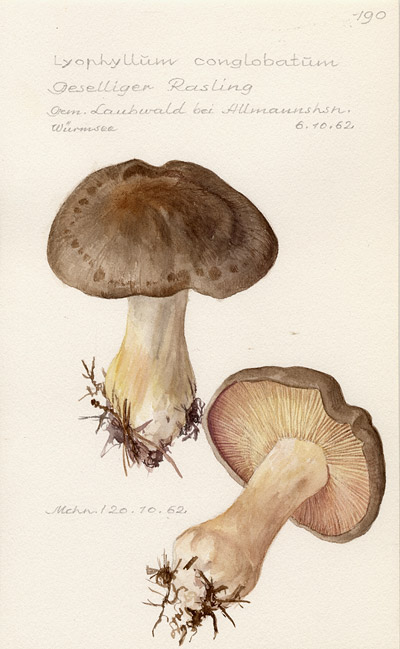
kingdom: Fungi
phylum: Basidiomycota
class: Agaricomycetes
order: Agaricales
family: Lyophyllaceae
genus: Lyophyllum
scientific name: Lyophyllum loricatum
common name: Gristly domecap
